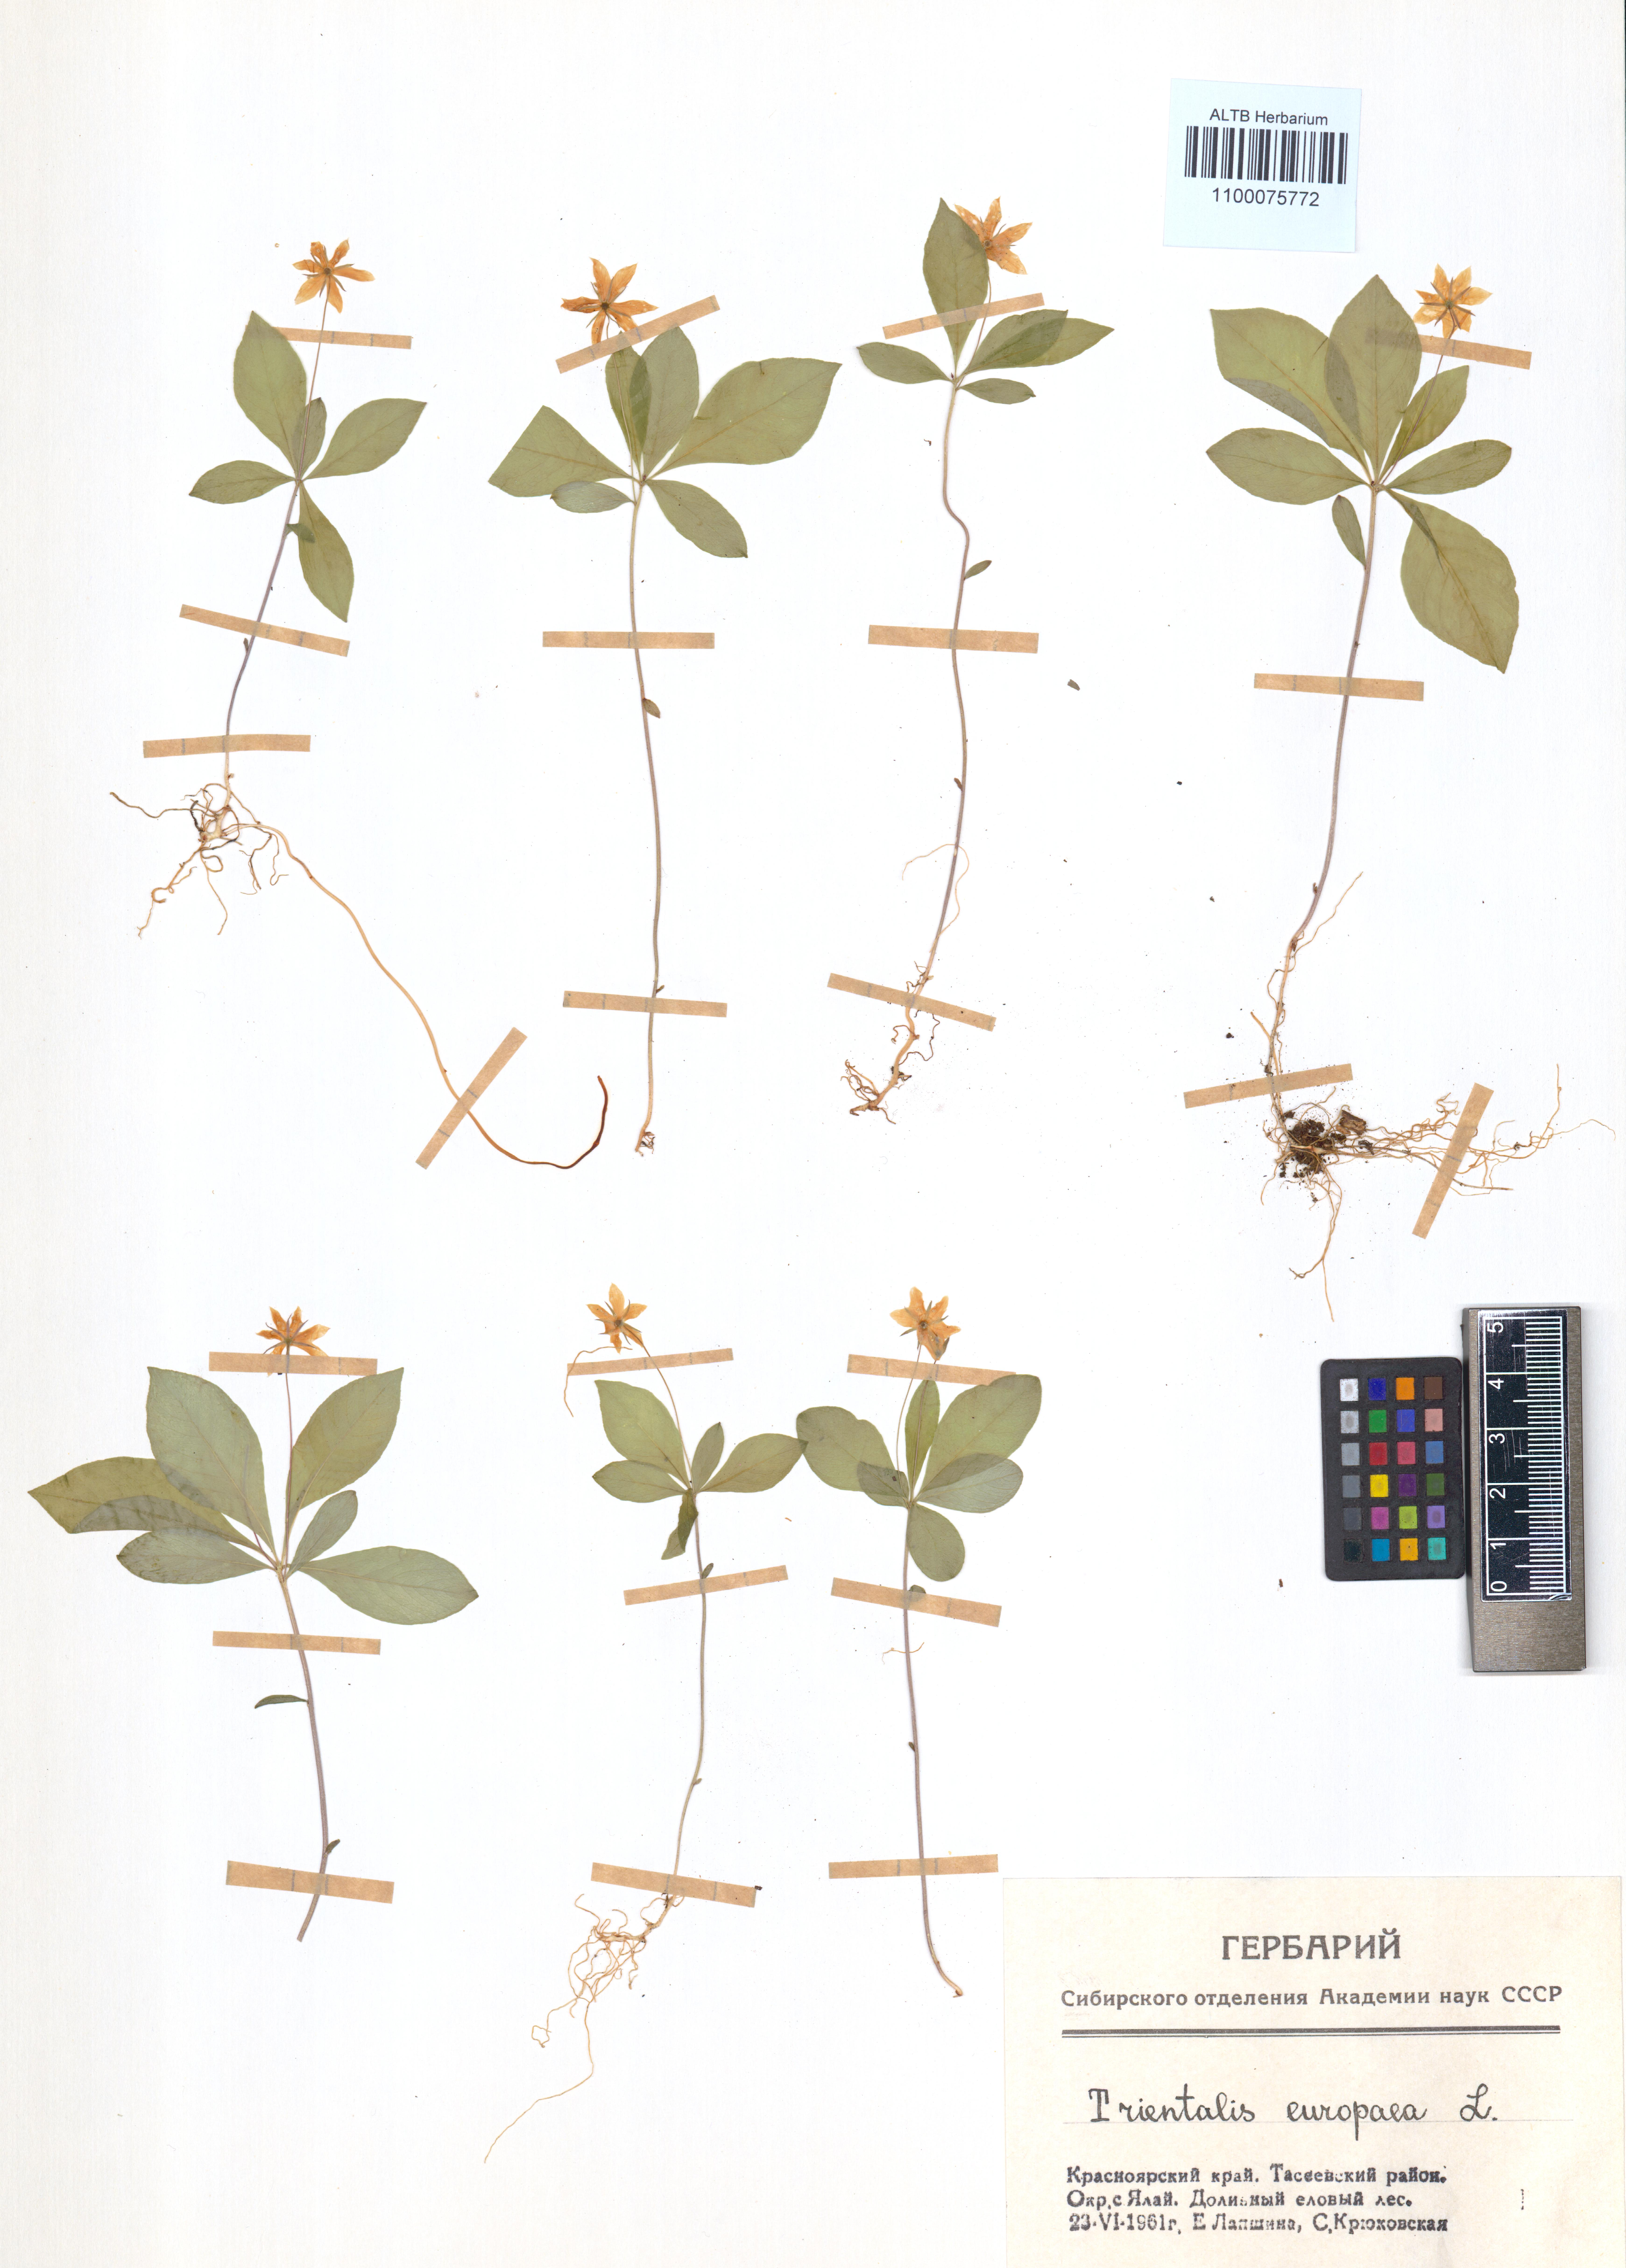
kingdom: Plantae
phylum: Tracheophyta
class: Magnoliopsida
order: Ericales
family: Primulaceae
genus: Lysimachia
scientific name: Lysimachia europaea
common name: Arctic starflower
